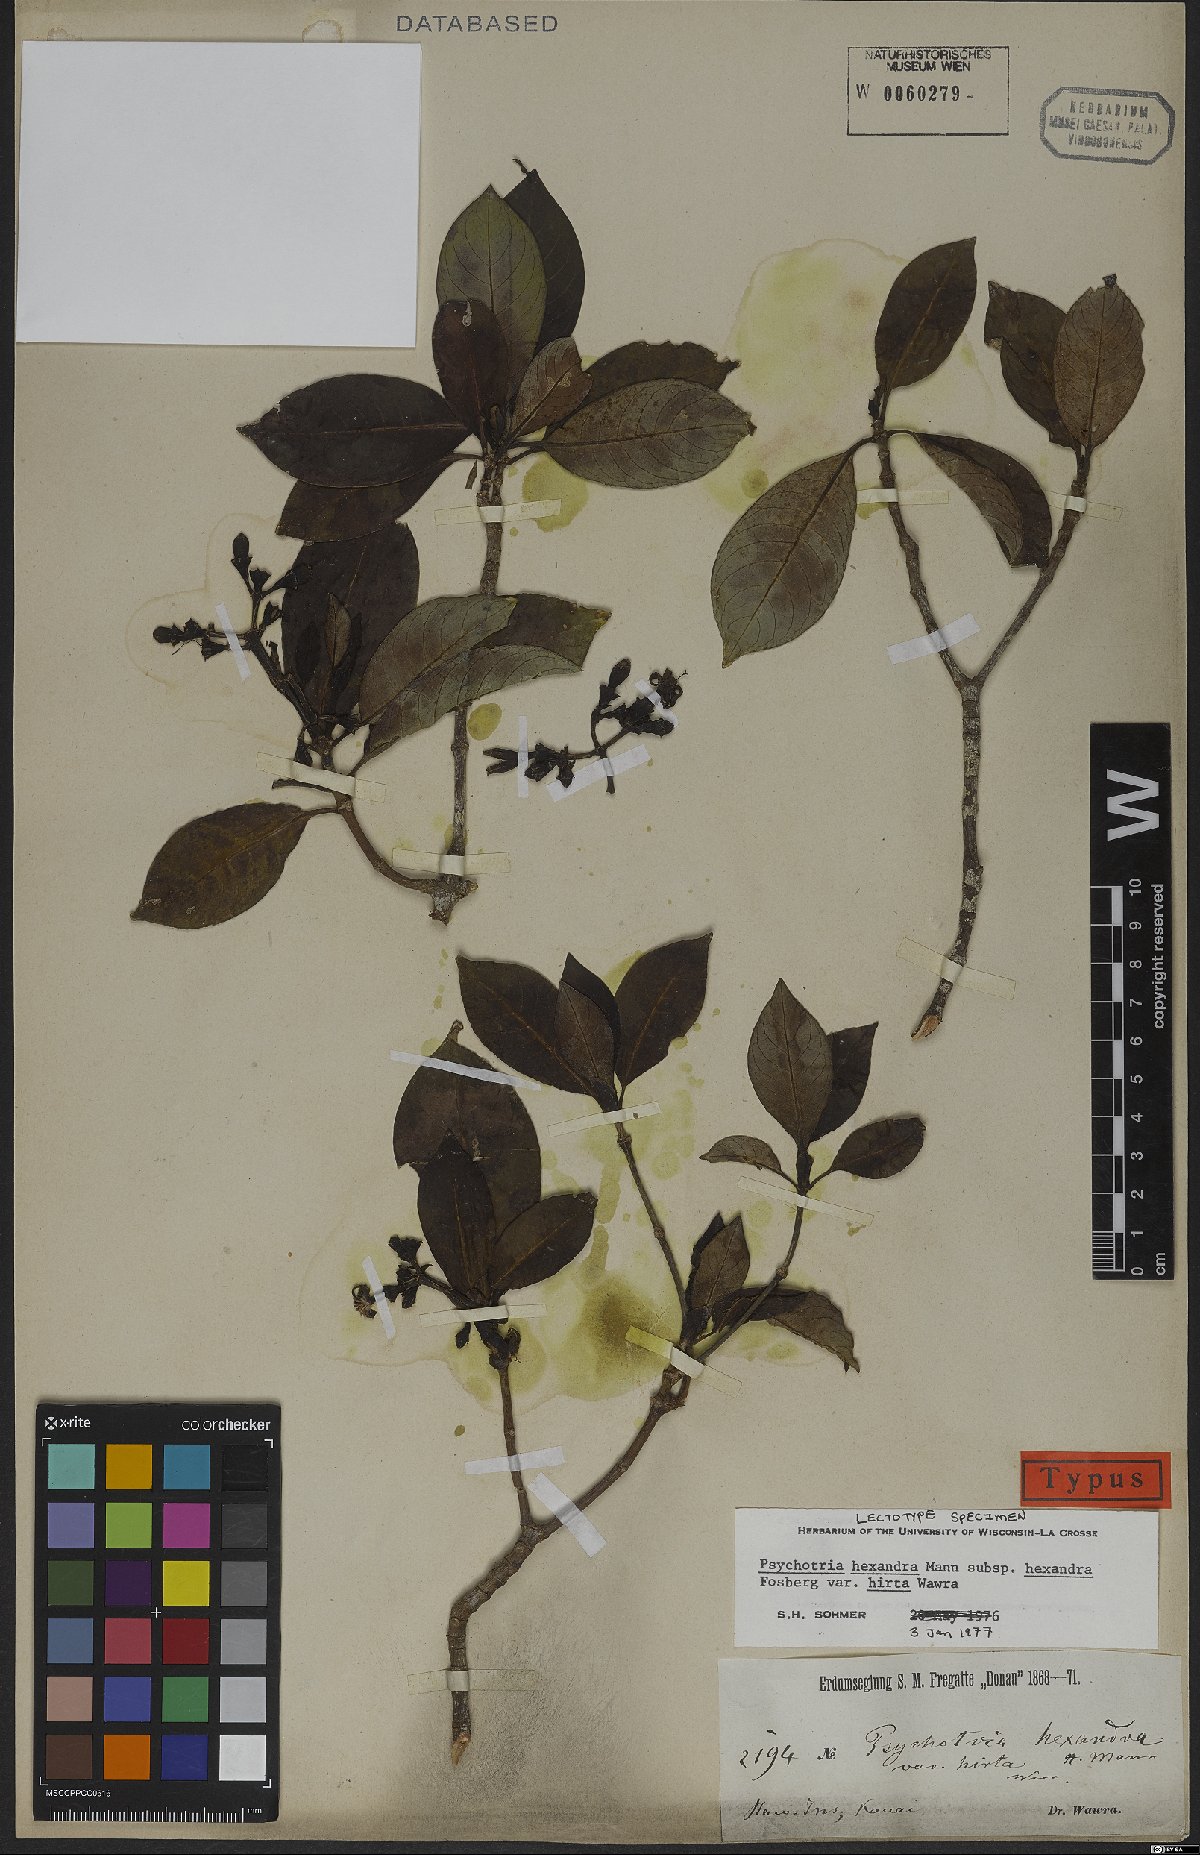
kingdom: Plantae
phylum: Tracheophyta
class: Magnoliopsida
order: Gentianales
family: Rubiaceae
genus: Psychotria
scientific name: Psychotria hexandra
